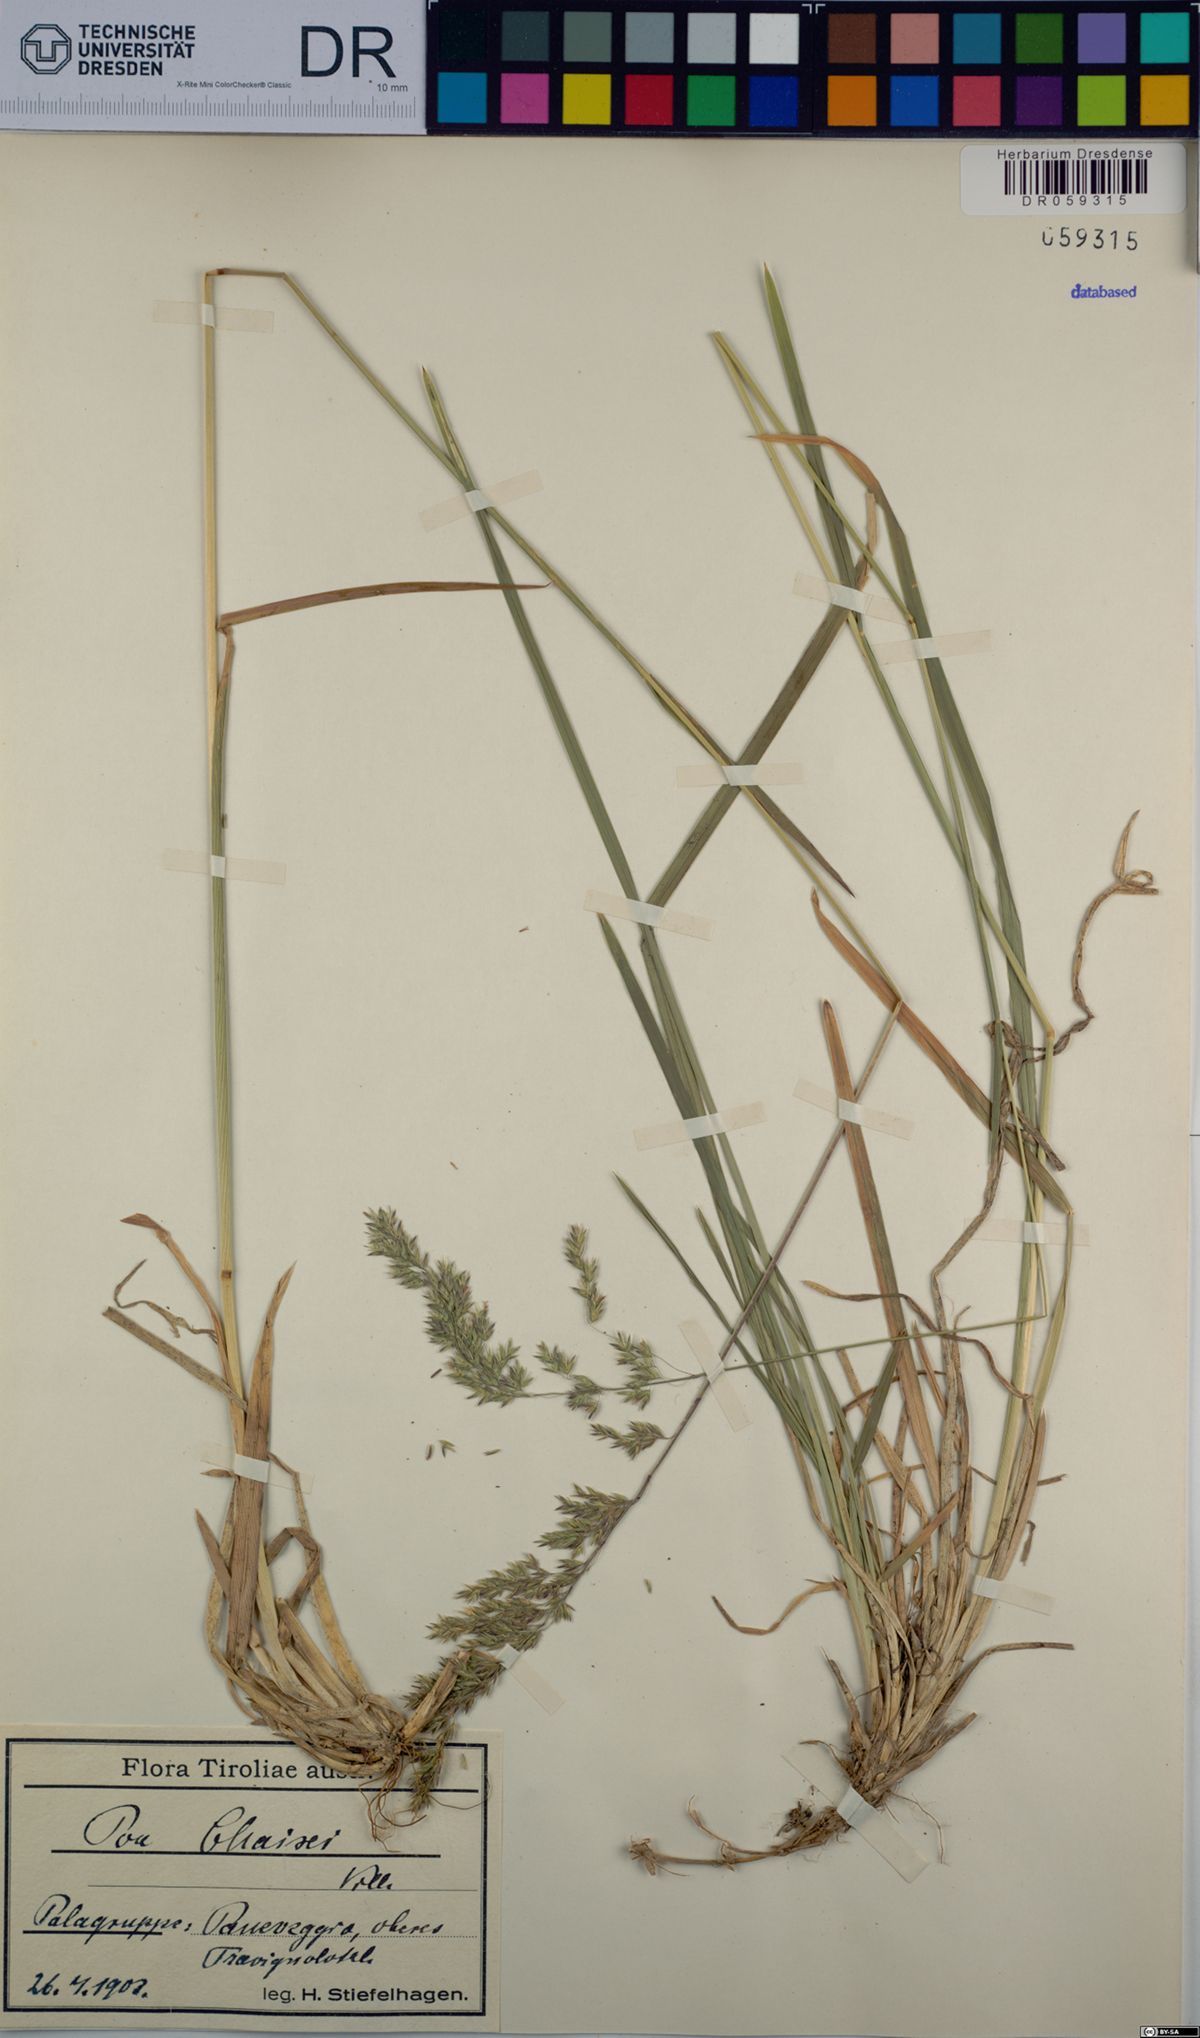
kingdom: Plantae
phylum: Tracheophyta
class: Liliopsida
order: Poales
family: Poaceae
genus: Poa
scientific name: Poa chaixii
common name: Broad-leaved meadow-grass
